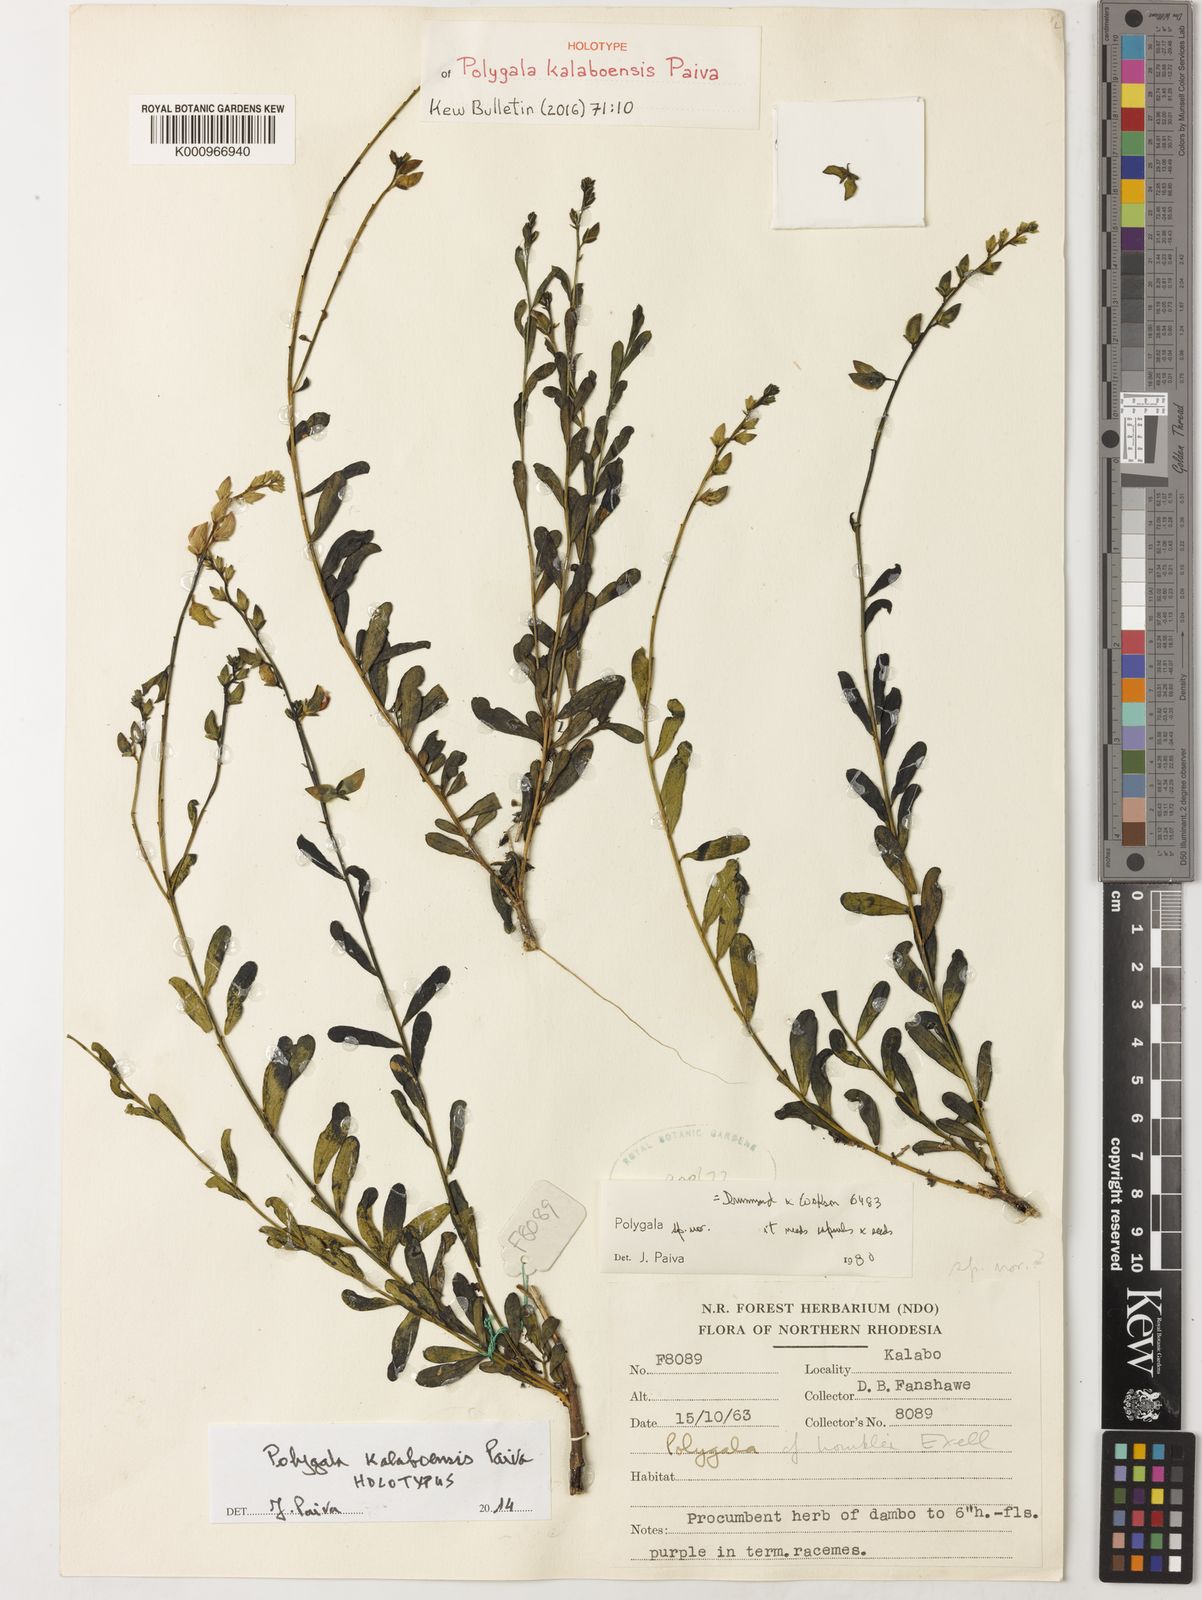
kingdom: Plantae
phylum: Tracheophyta
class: Magnoliopsida
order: Fabales
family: Polygalaceae
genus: Polygala
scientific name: Polygala kalaboensis
